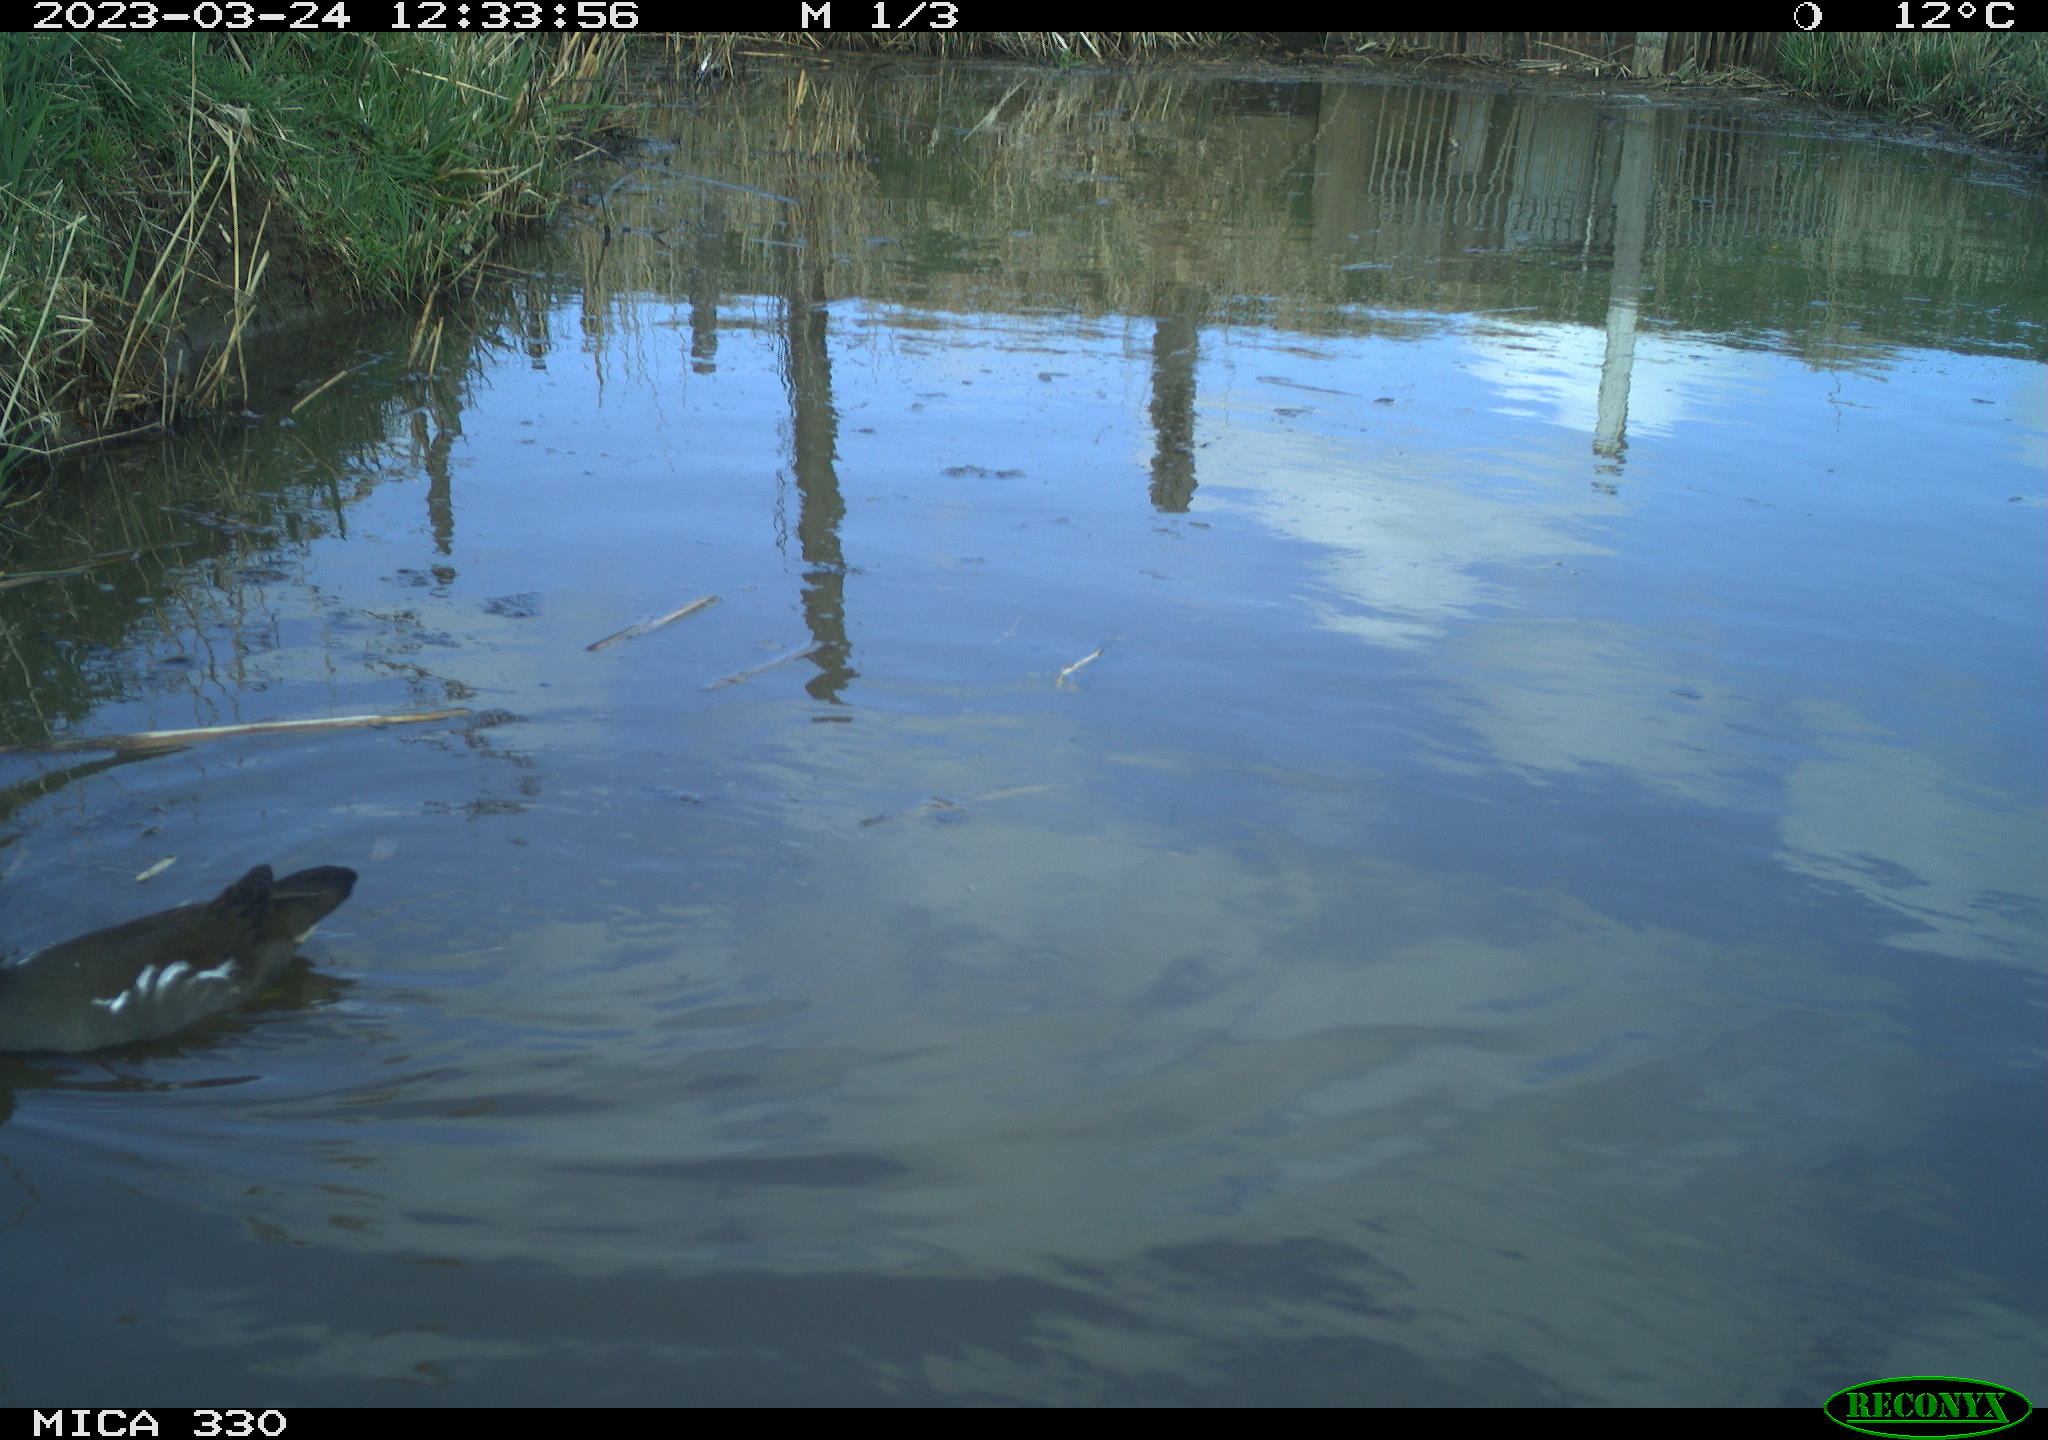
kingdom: Animalia
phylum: Chordata
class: Aves
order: Gruiformes
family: Rallidae
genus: Gallinula
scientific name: Gallinula chloropus
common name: Common moorhen
